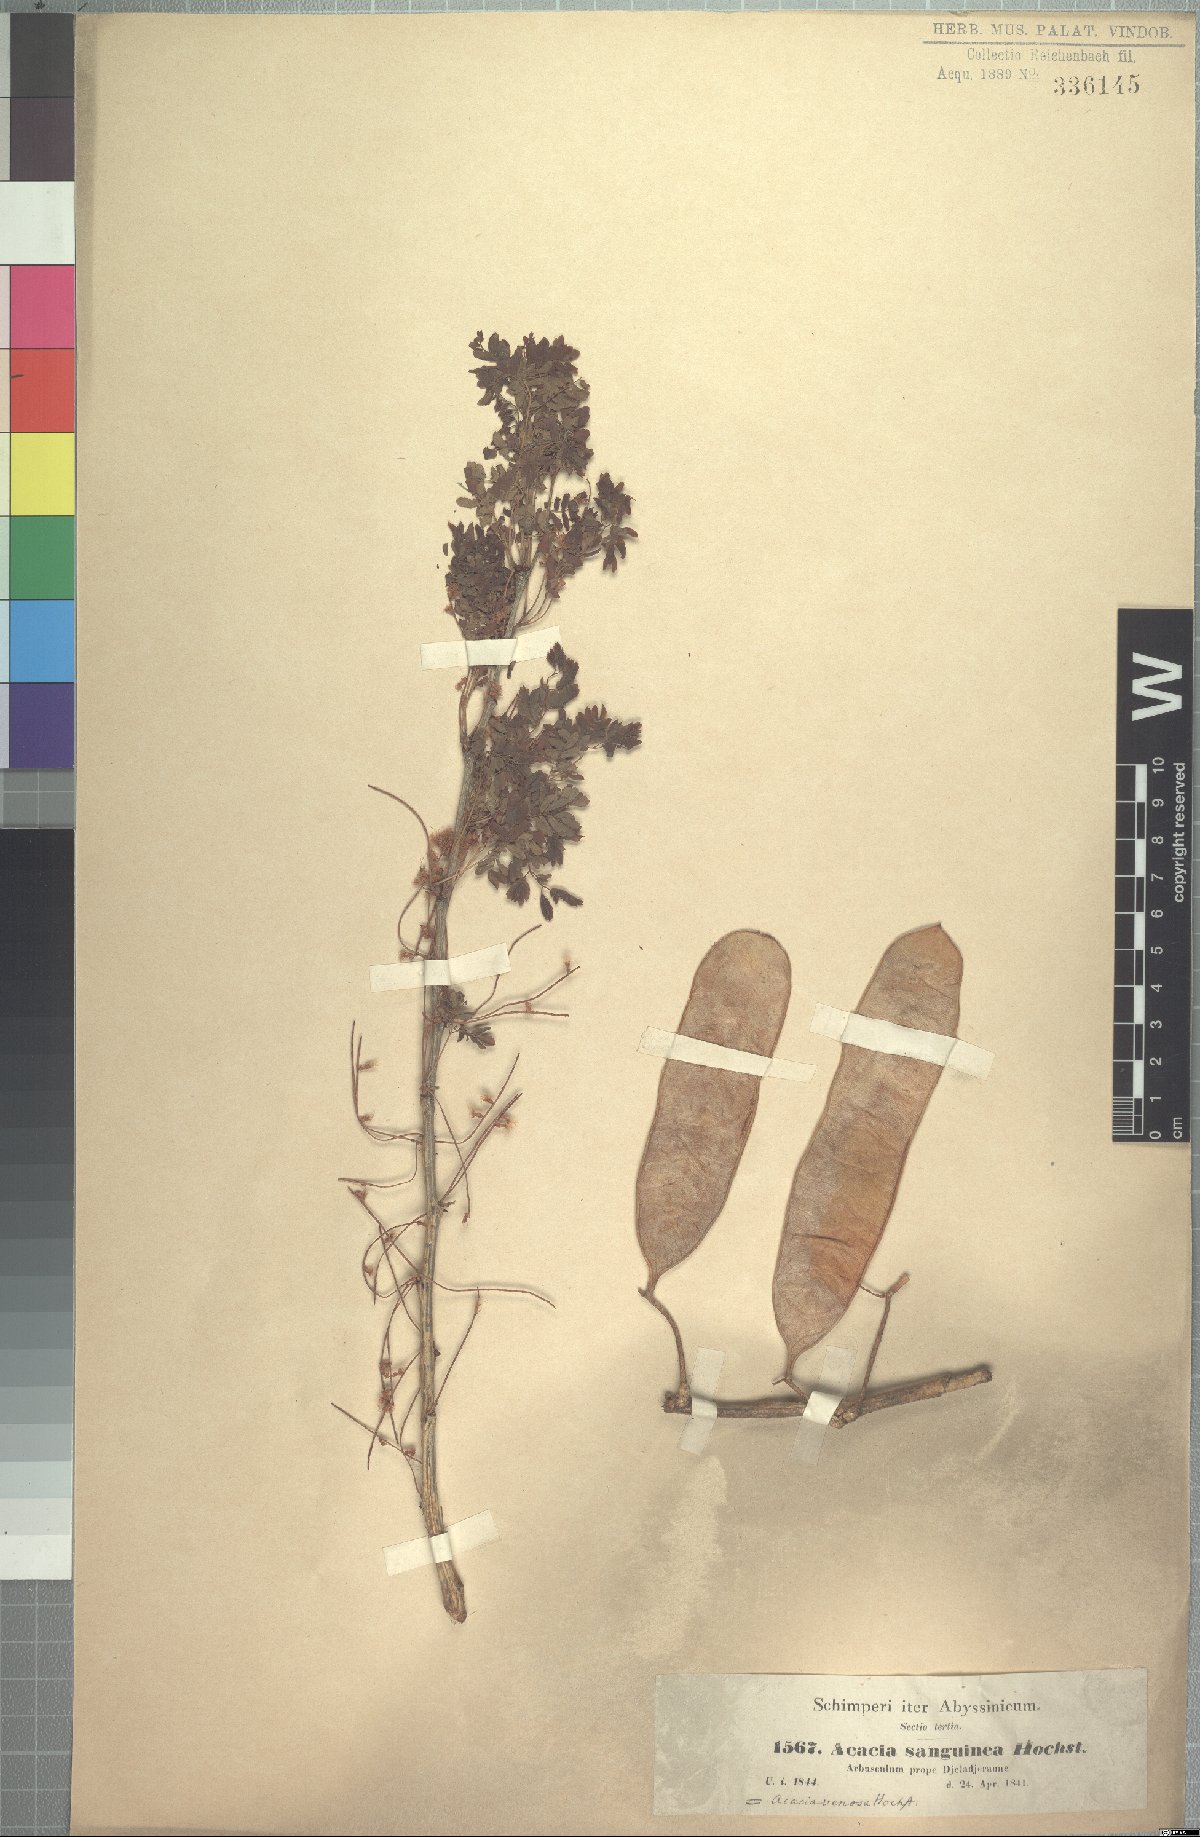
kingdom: Plantae
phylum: Tracheophyta
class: Magnoliopsida
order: Fabales
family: Fabaceae
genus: Senegalia
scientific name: Senegalia venosa
